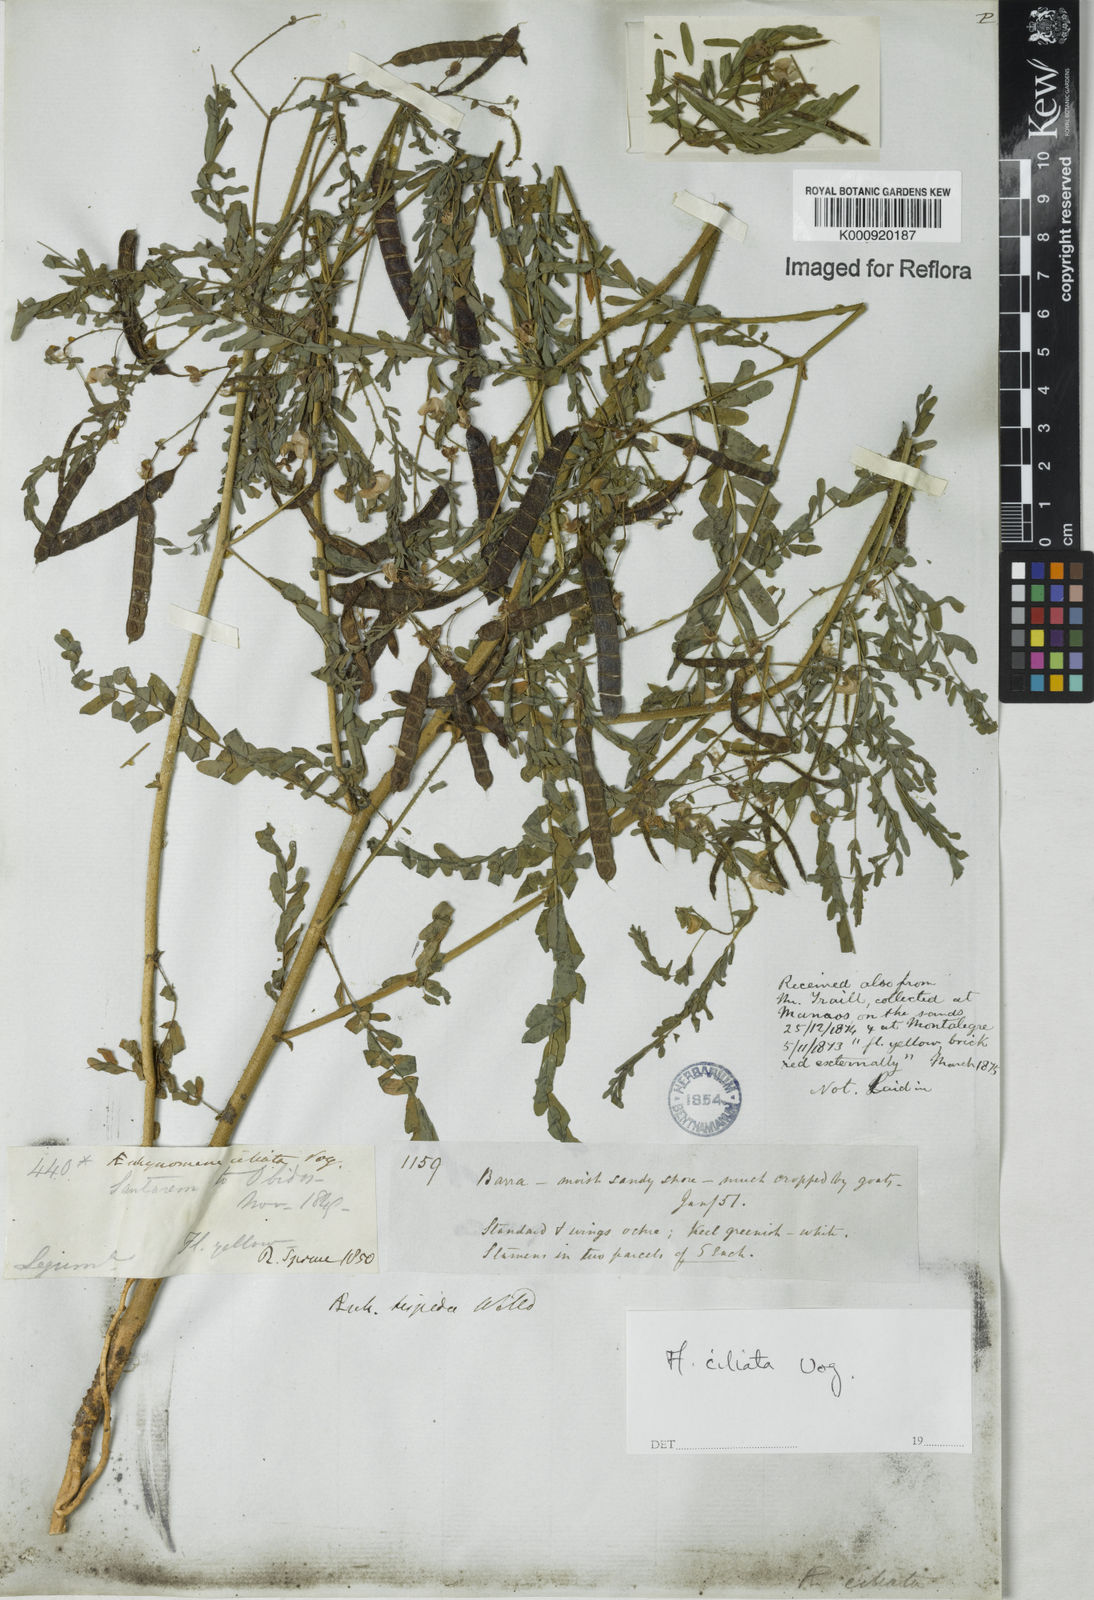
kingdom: Plantae
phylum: Tracheophyta
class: Magnoliopsida
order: Fabales
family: Fabaceae
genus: Aeschynomene
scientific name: Aeschynomene ciliata
